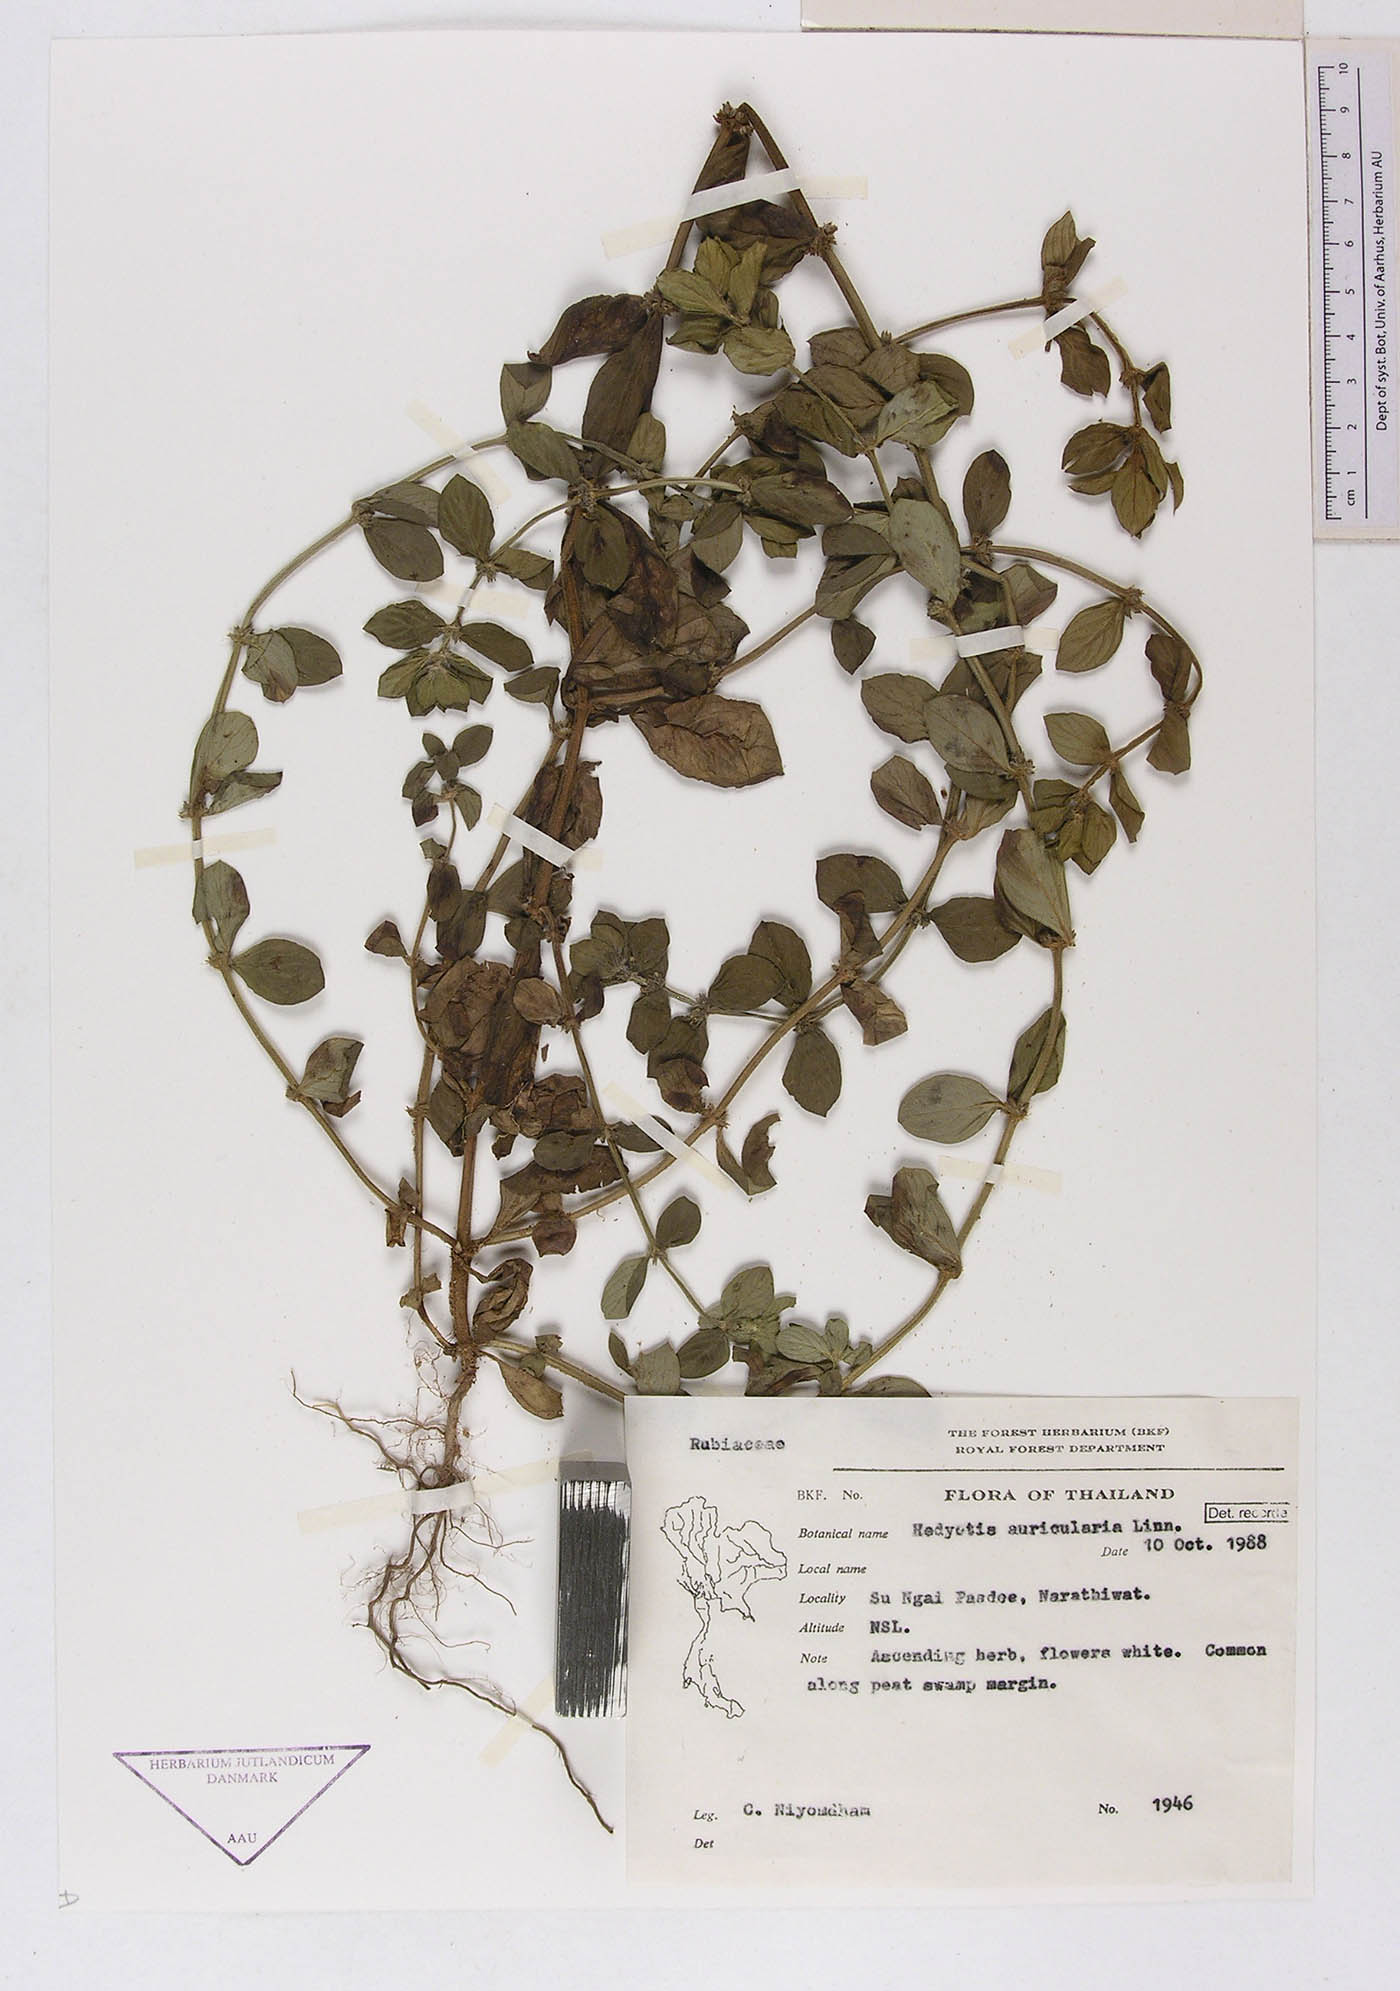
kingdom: Plantae
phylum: Tracheophyta
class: Magnoliopsida
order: Gentianales
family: Rubiaceae
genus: Spermacoce
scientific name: Spermacoce alata
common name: Winged false buttonweed
